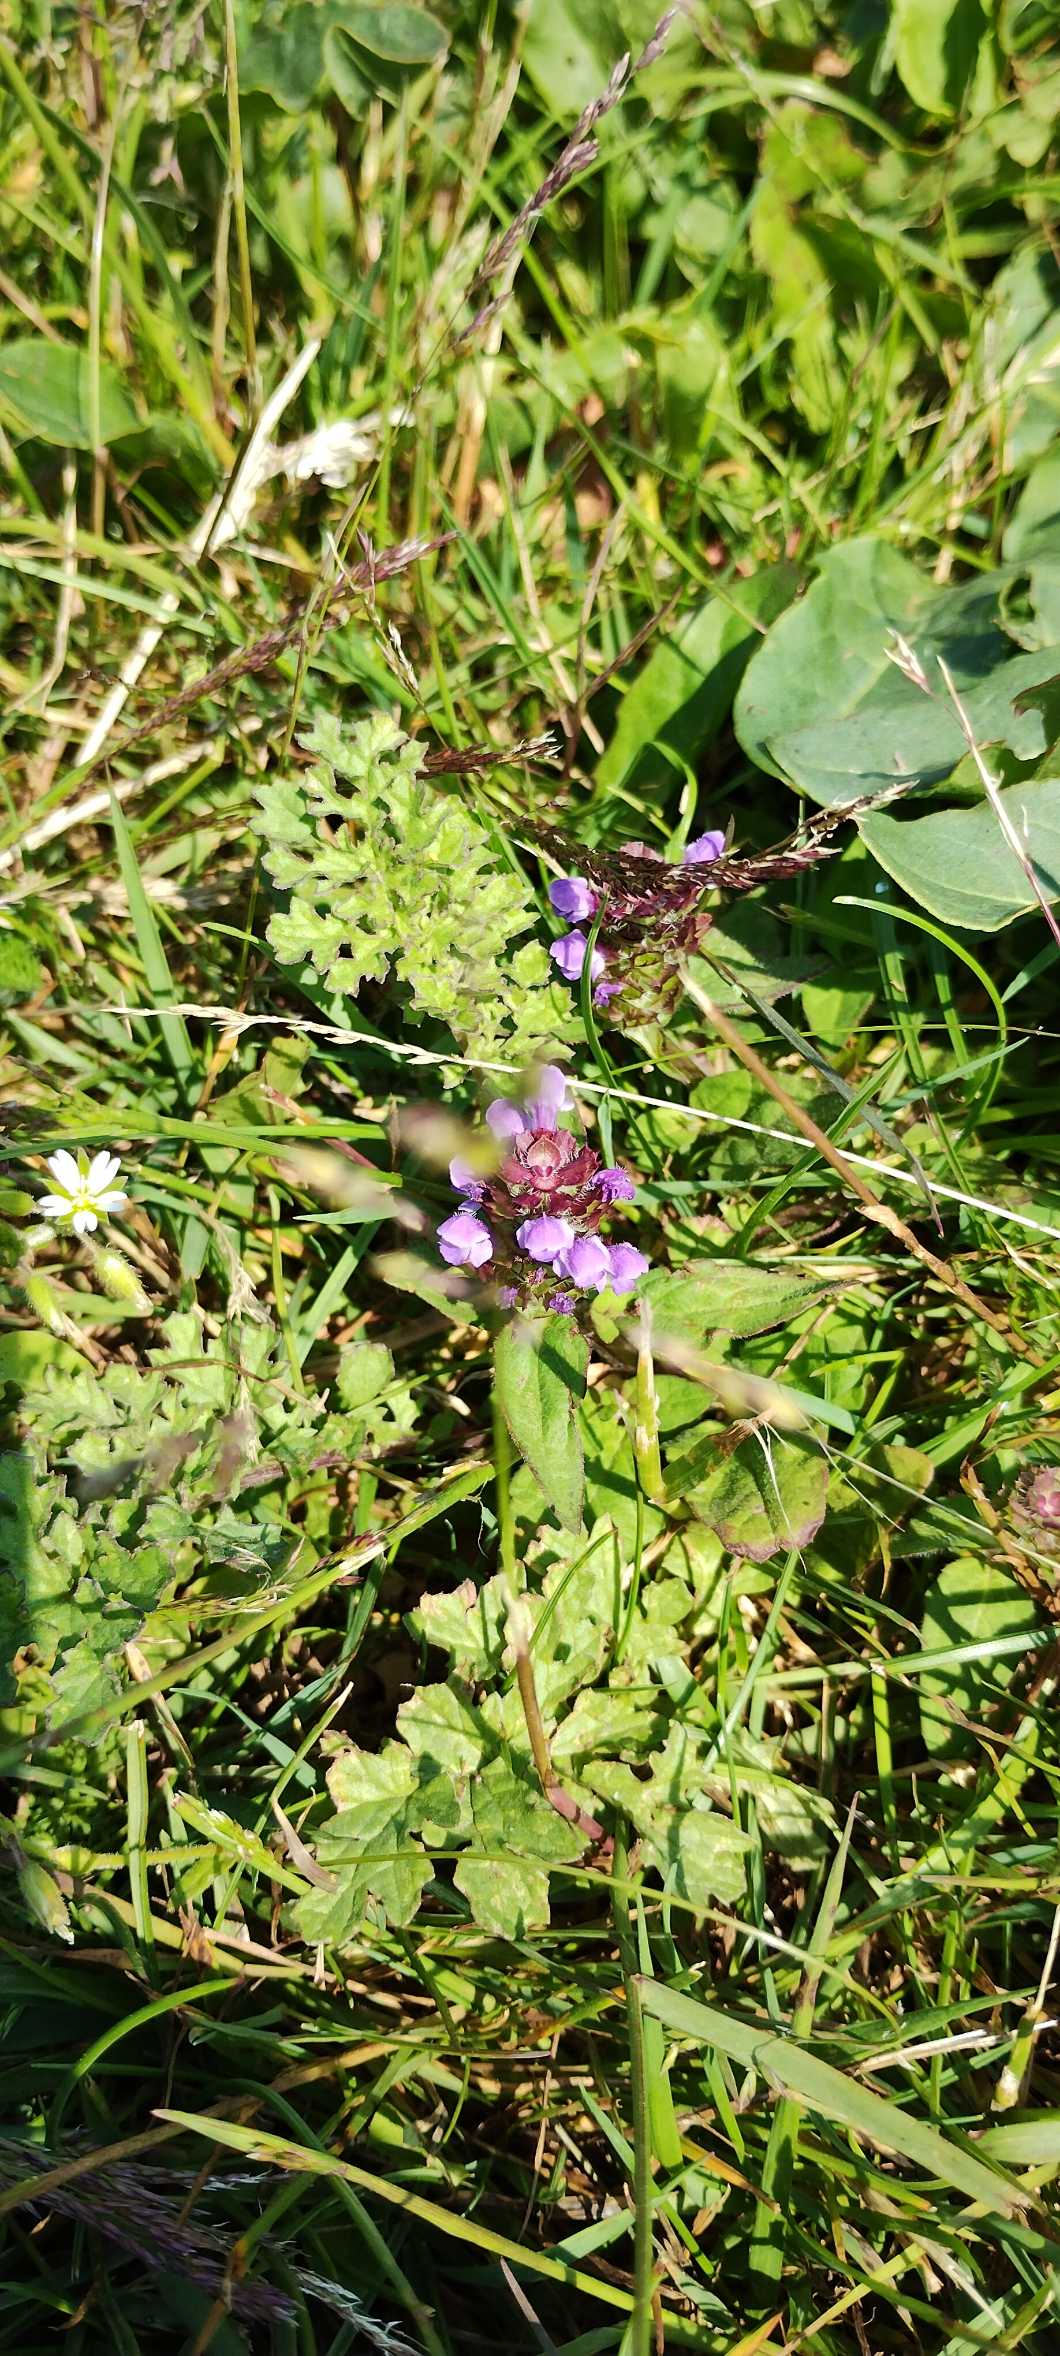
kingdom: Plantae
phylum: Tracheophyta
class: Magnoliopsida
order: Lamiales
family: Lamiaceae
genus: Prunella
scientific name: Prunella vulgaris
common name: Almindelig brunelle
